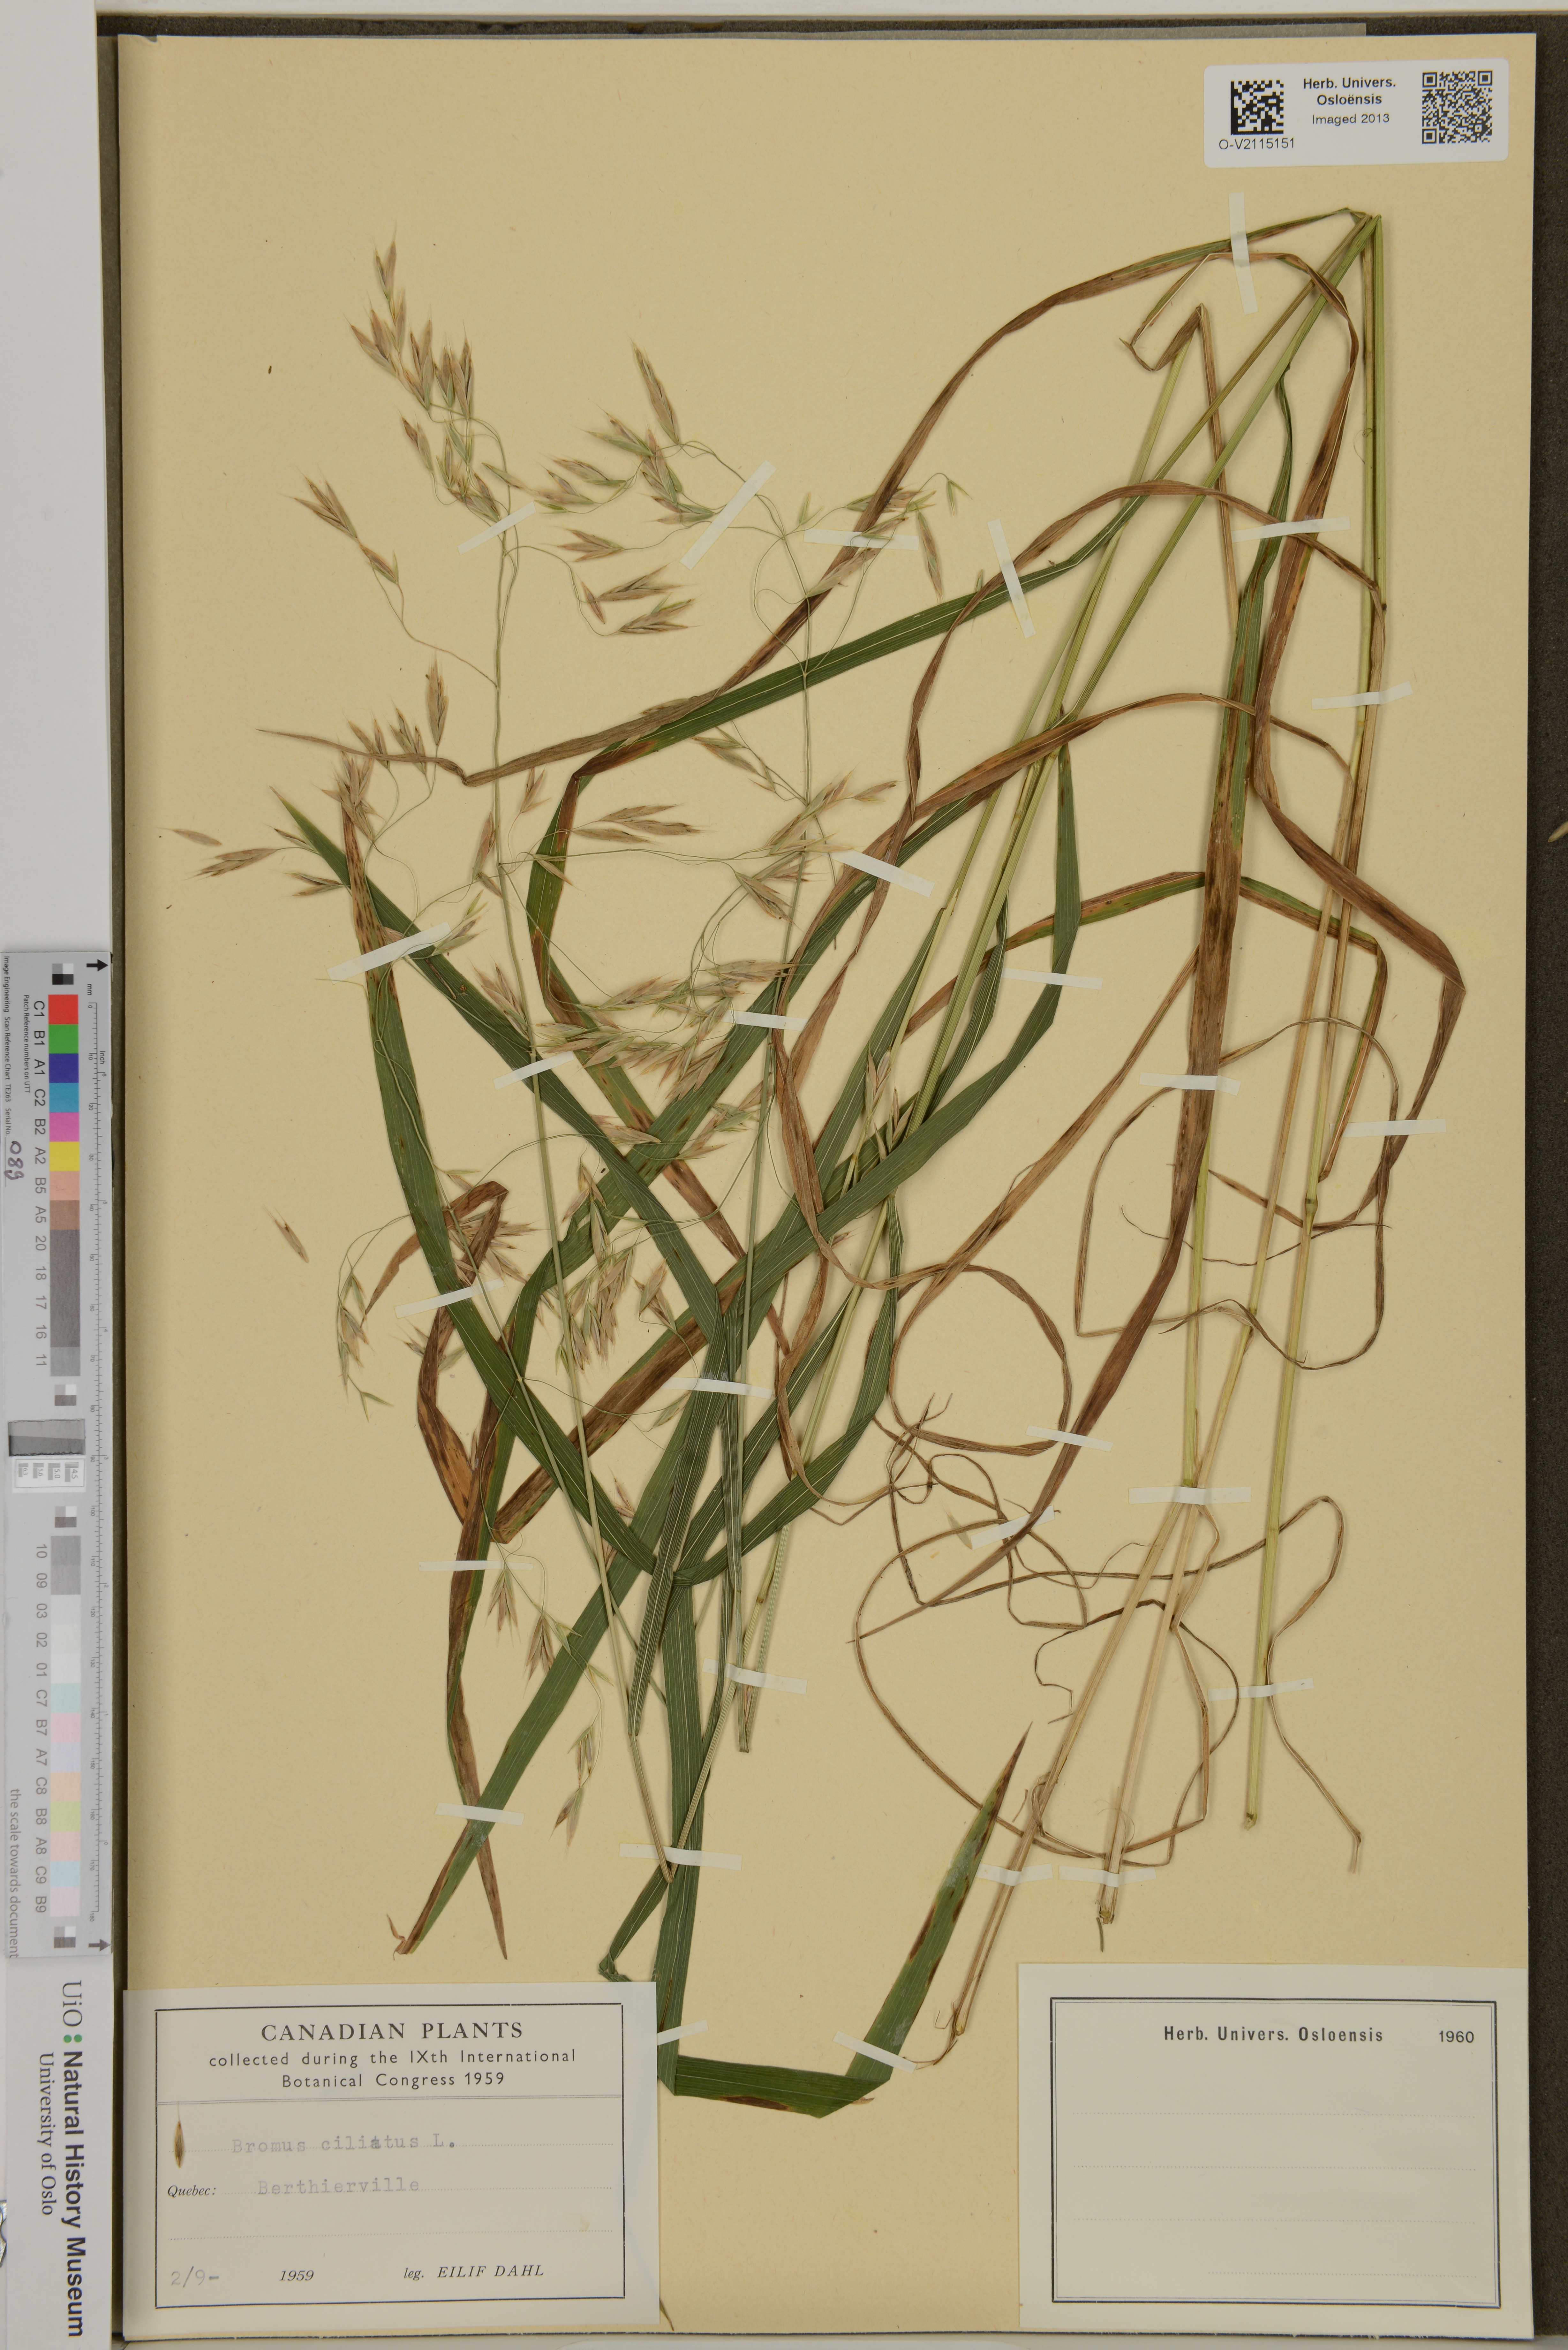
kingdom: Plantae
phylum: Tracheophyta
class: Liliopsida
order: Poales
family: Poaceae
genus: Bromus
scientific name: Bromus ciliatus
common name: Fringe brome
